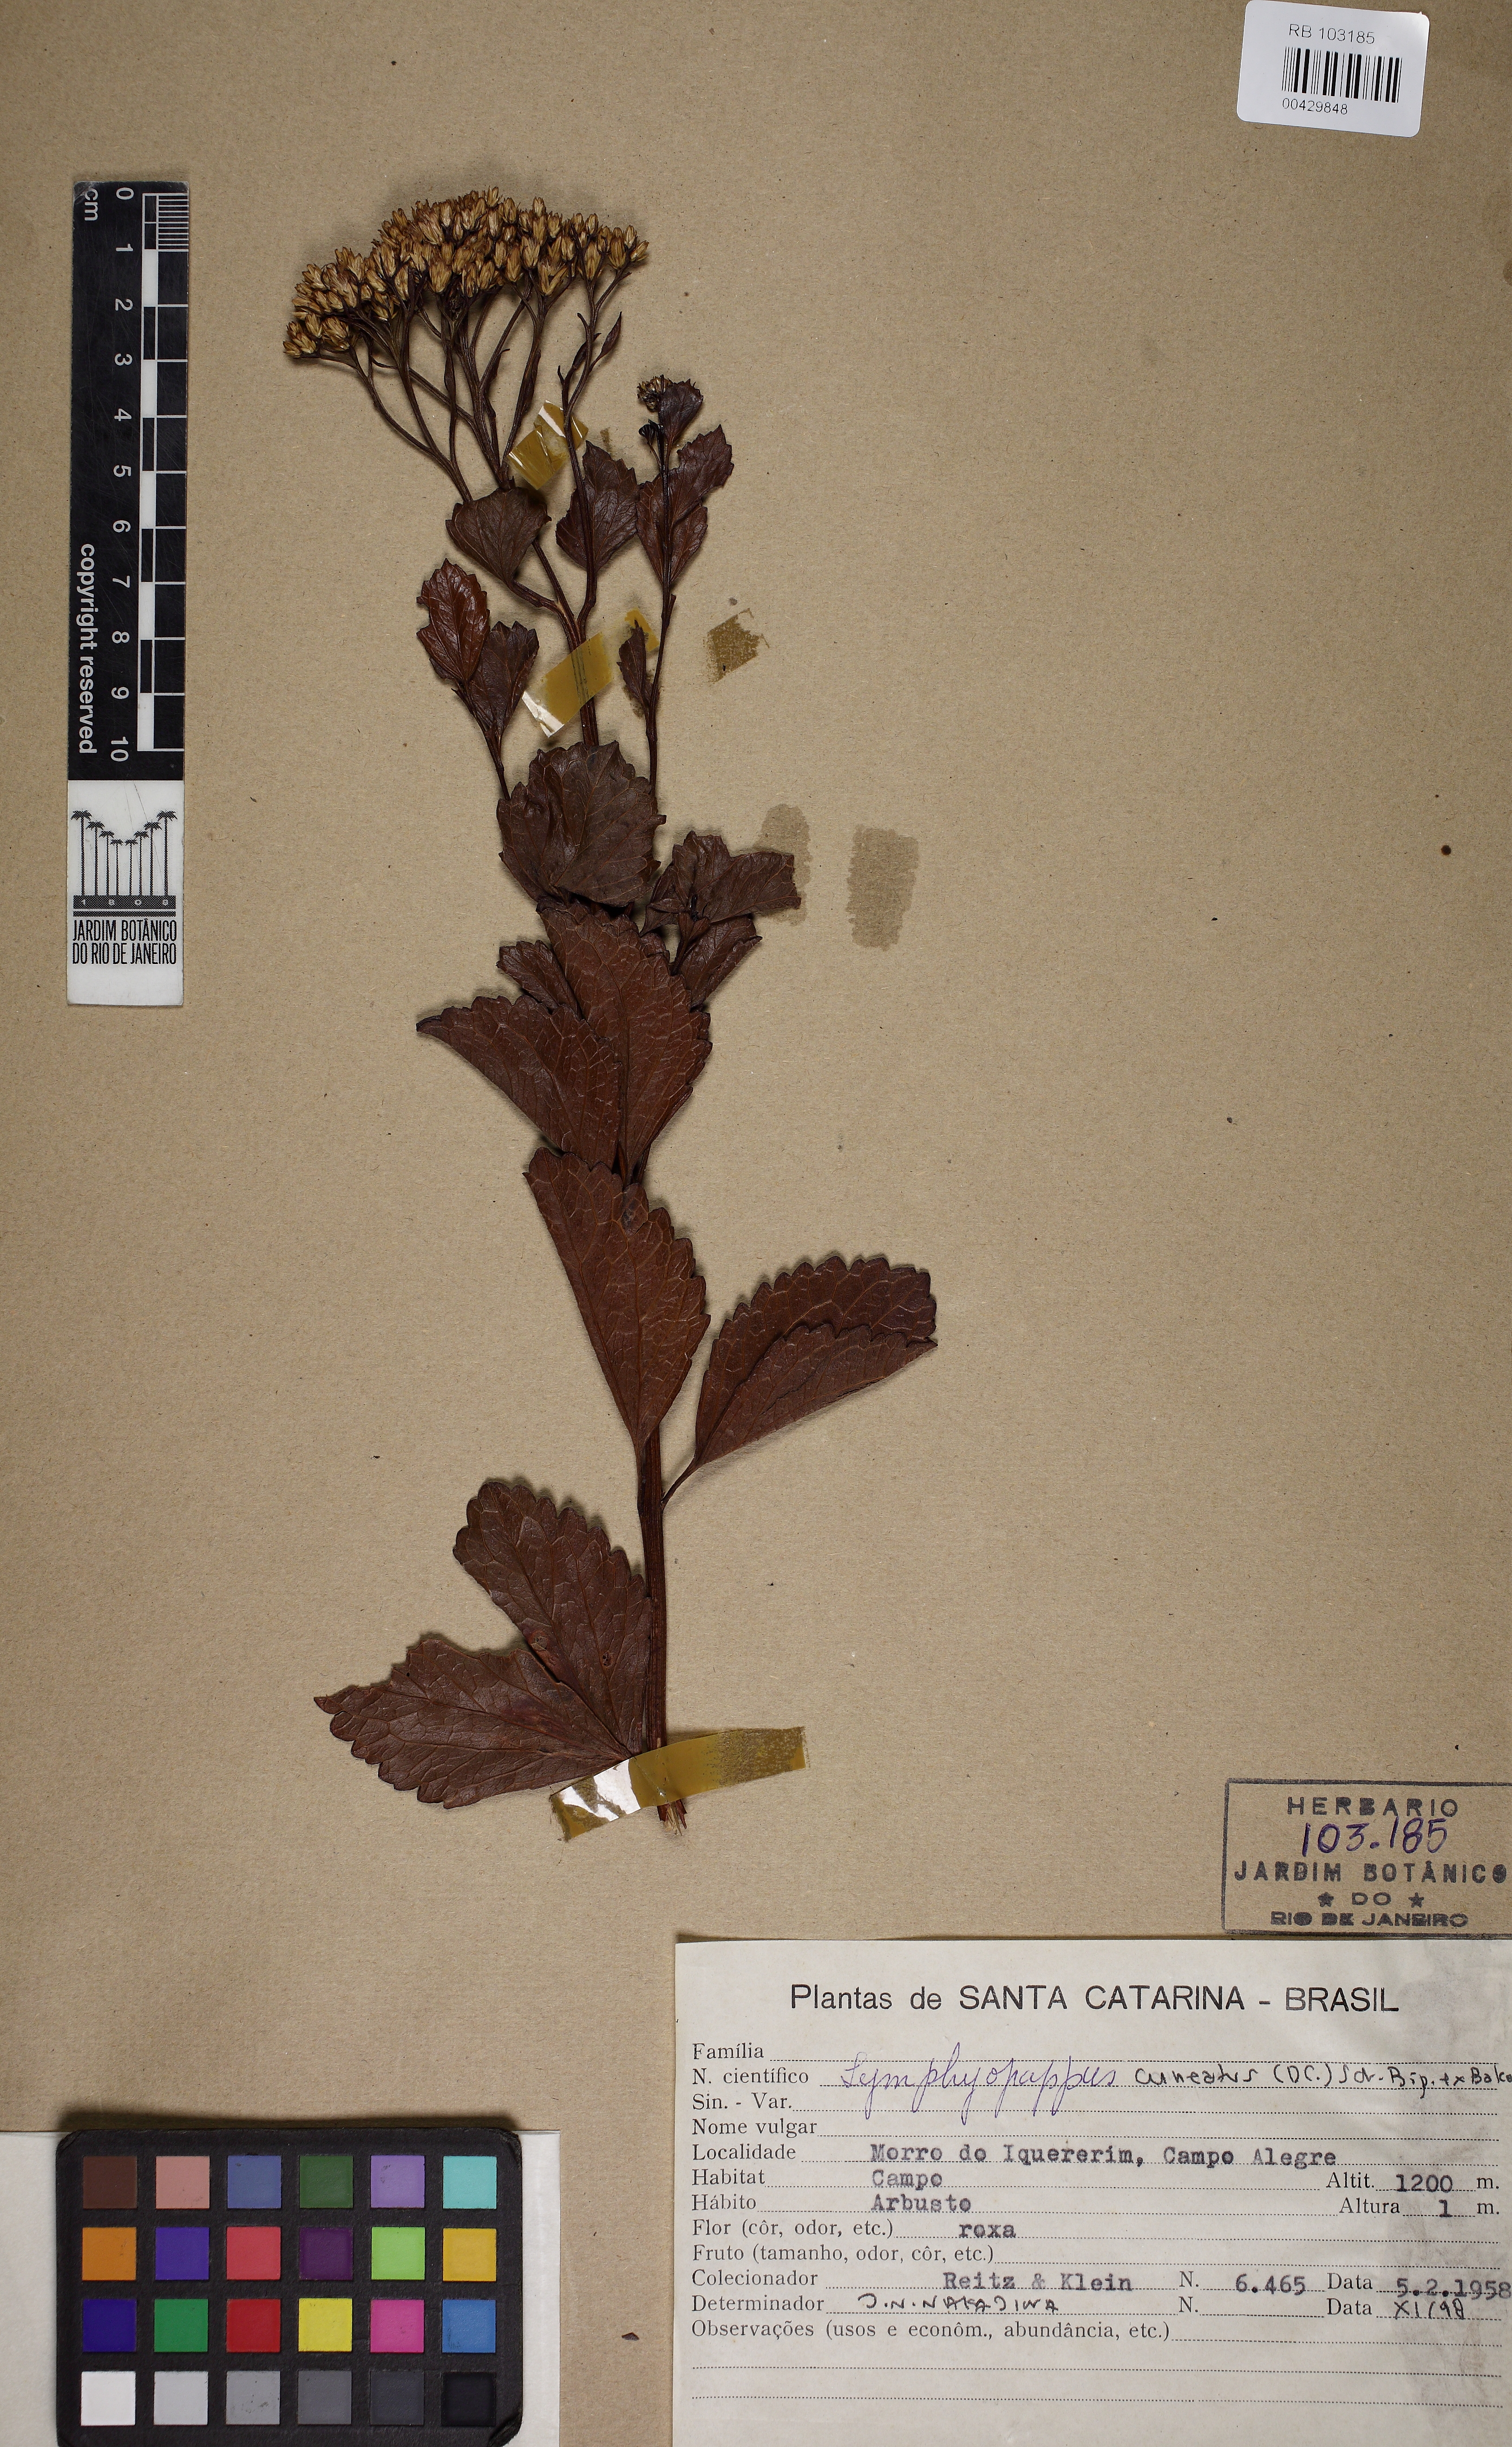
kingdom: Plantae
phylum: Tracheophyta
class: Magnoliopsida
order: Asterales
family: Asteraceae
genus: Symphyopappus
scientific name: Symphyopappus cuneatus
